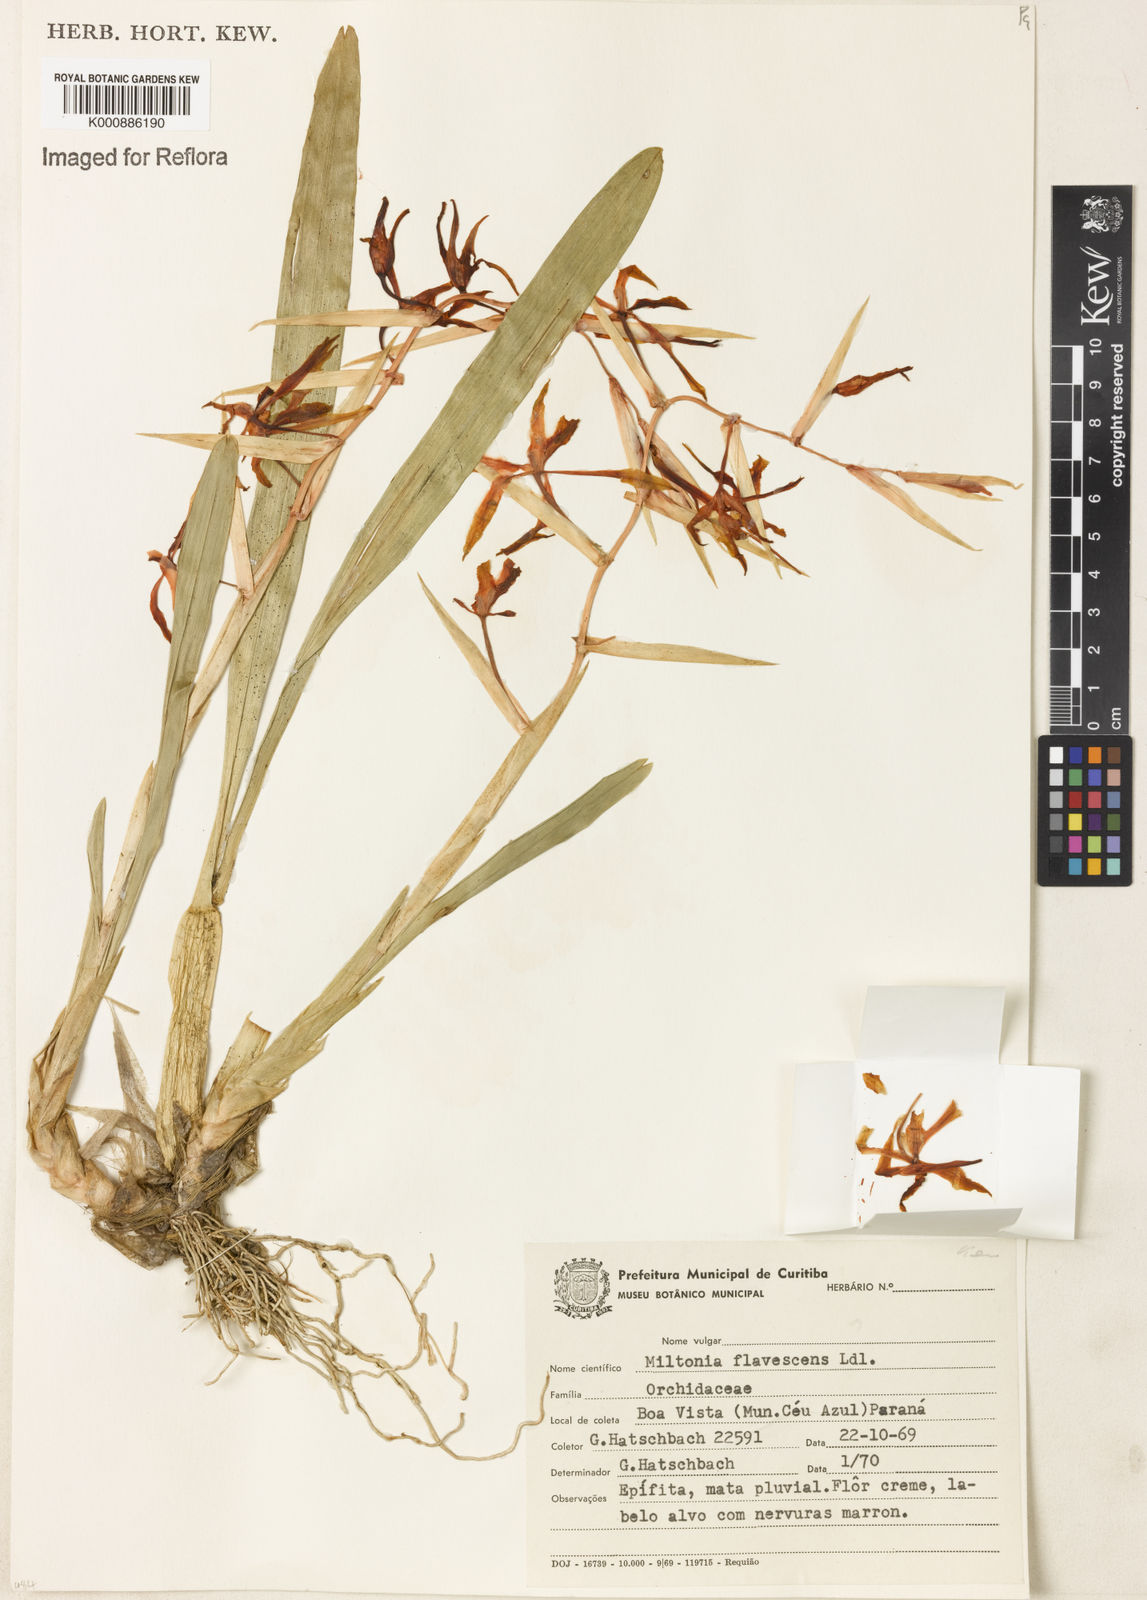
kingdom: Plantae
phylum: Tracheophyta
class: Liliopsida
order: Asparagales
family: Orchidaceae
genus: Miltonia
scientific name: Miltonia flavescens
